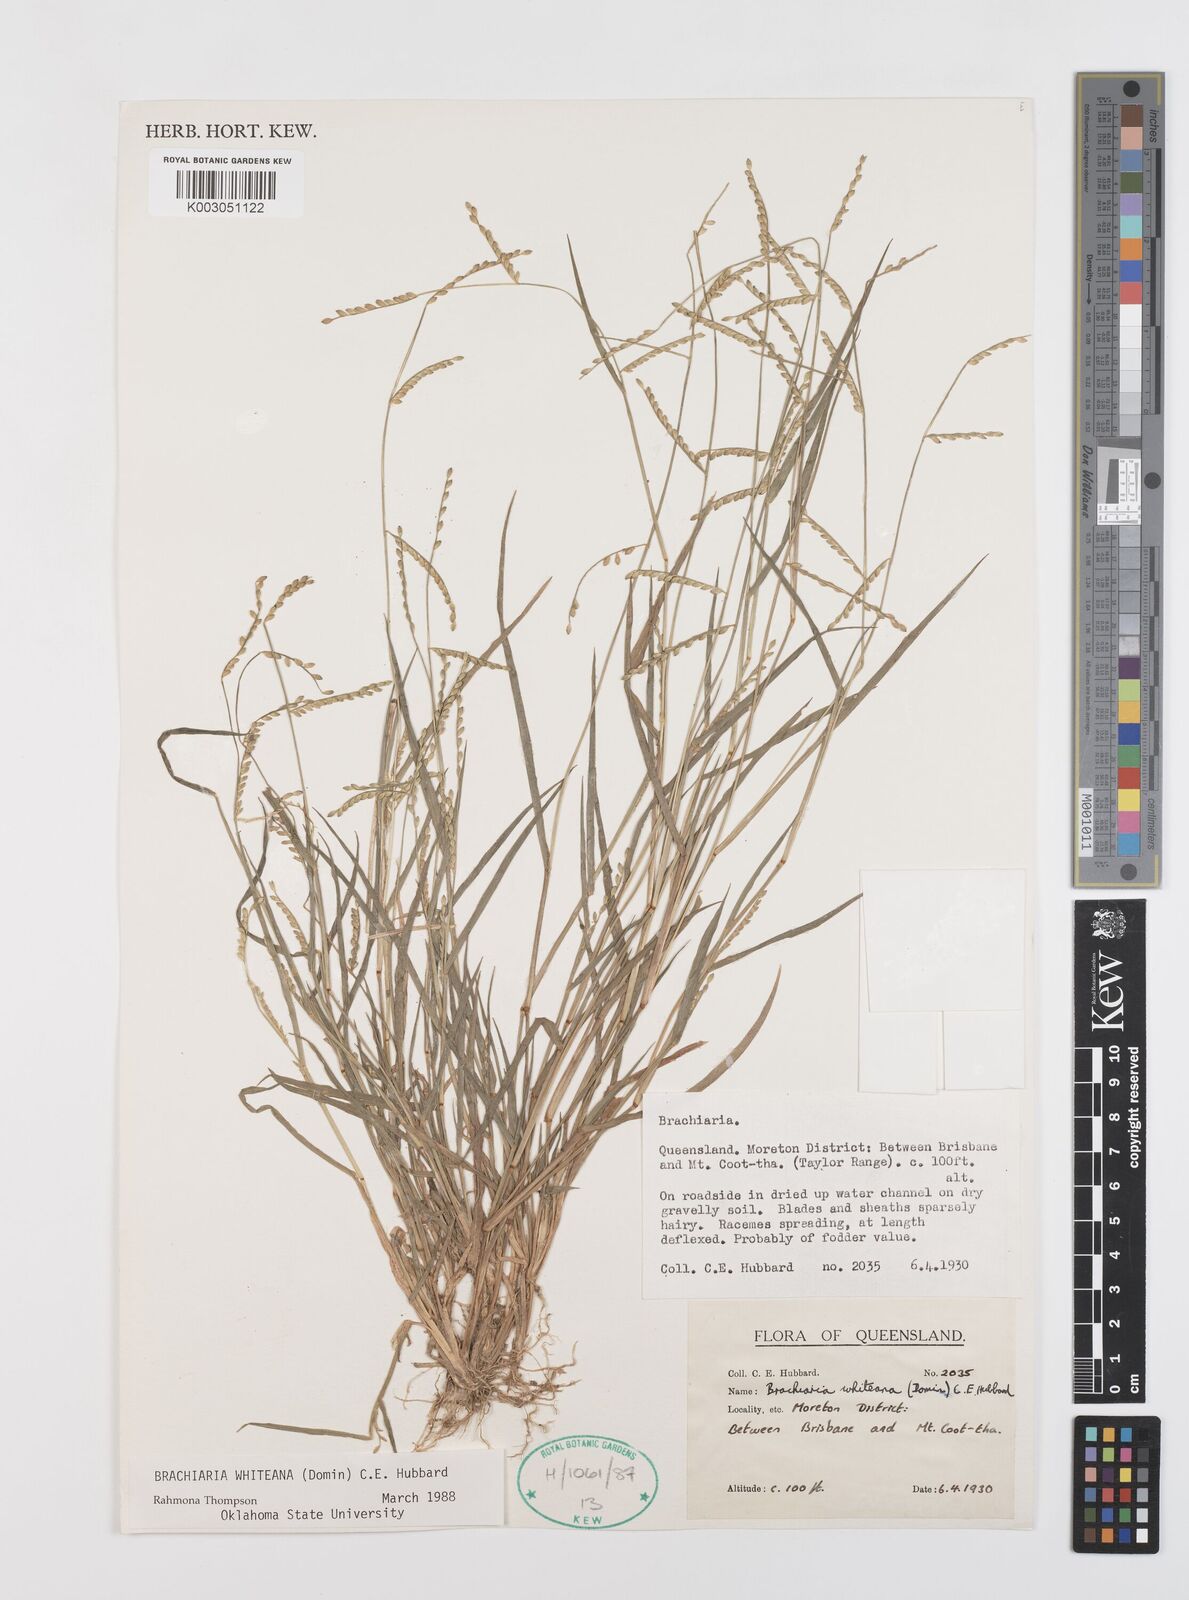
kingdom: Plantae
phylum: Tracheophyta
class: Liliopsida
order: Poales
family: Poaceae
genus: Urochloa
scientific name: Urochloa whiteana
